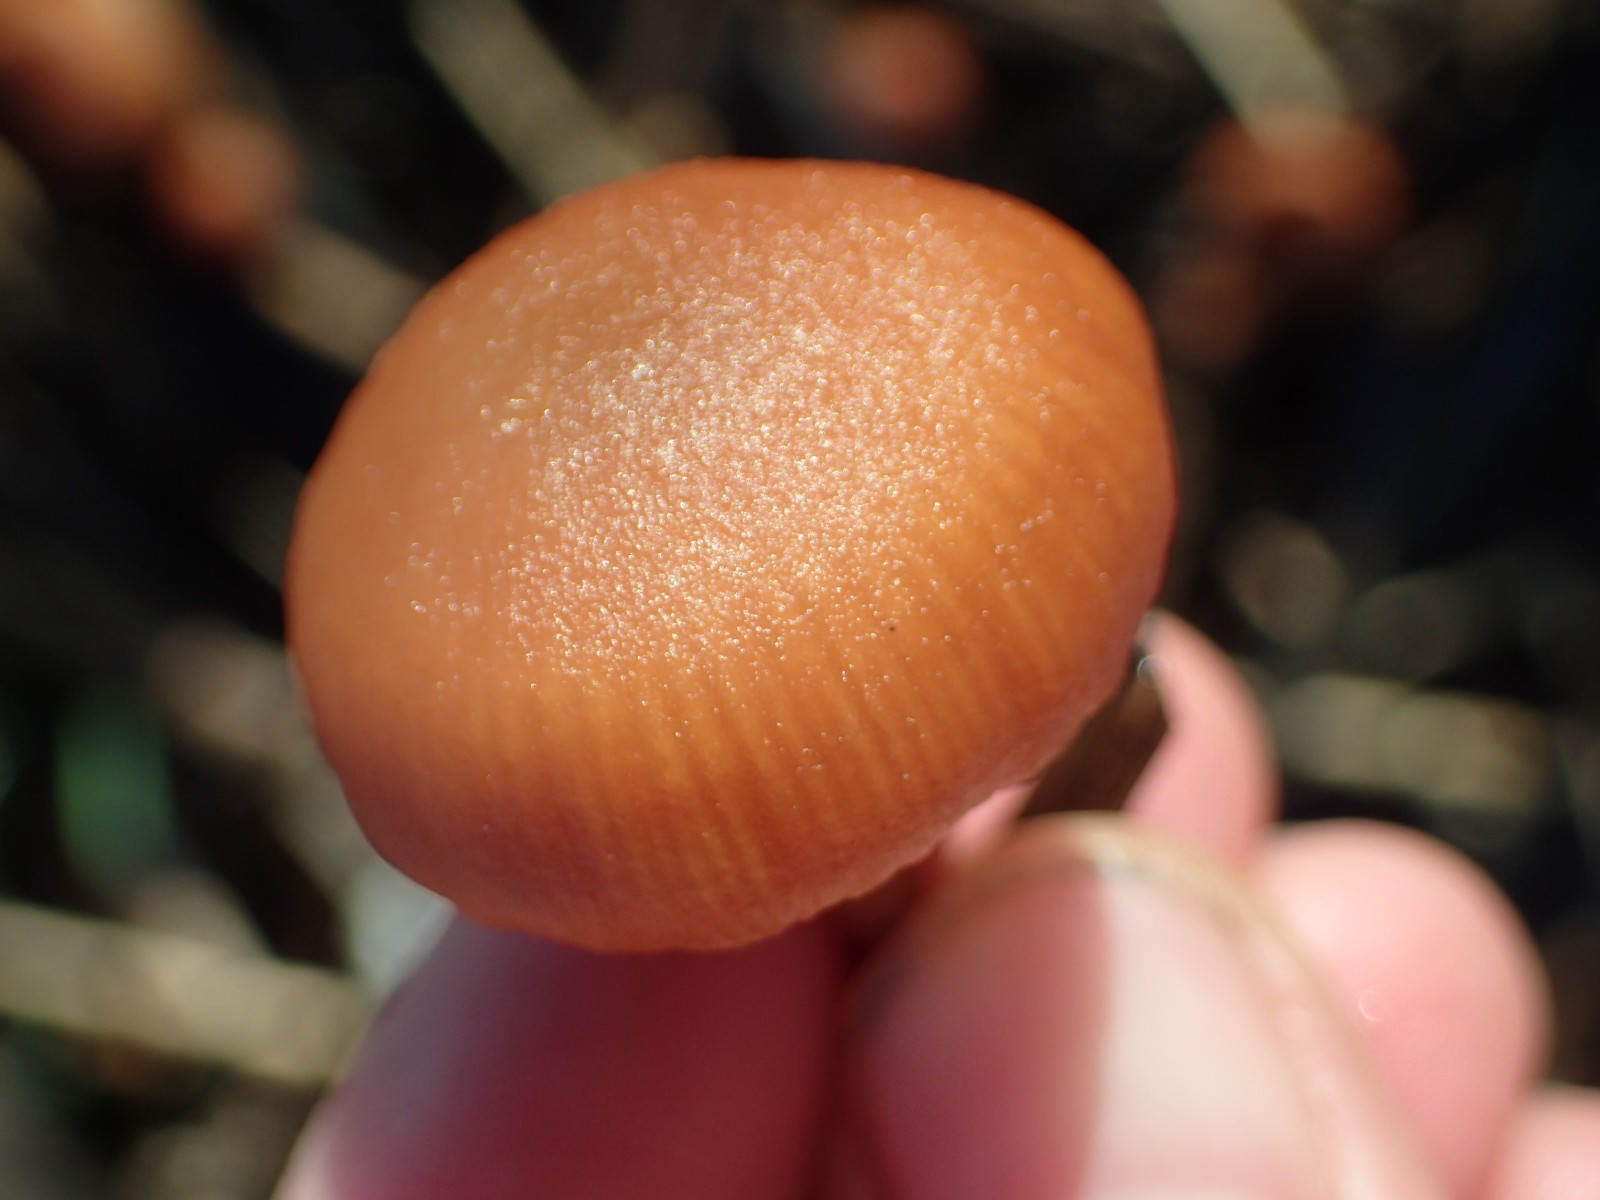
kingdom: Fungi
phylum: Basidiomycota
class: Agaricomycetes
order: Agaricales
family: Tubariaceae
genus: Tubaria
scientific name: Tubaria furfuracea
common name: kliddet fnughat
